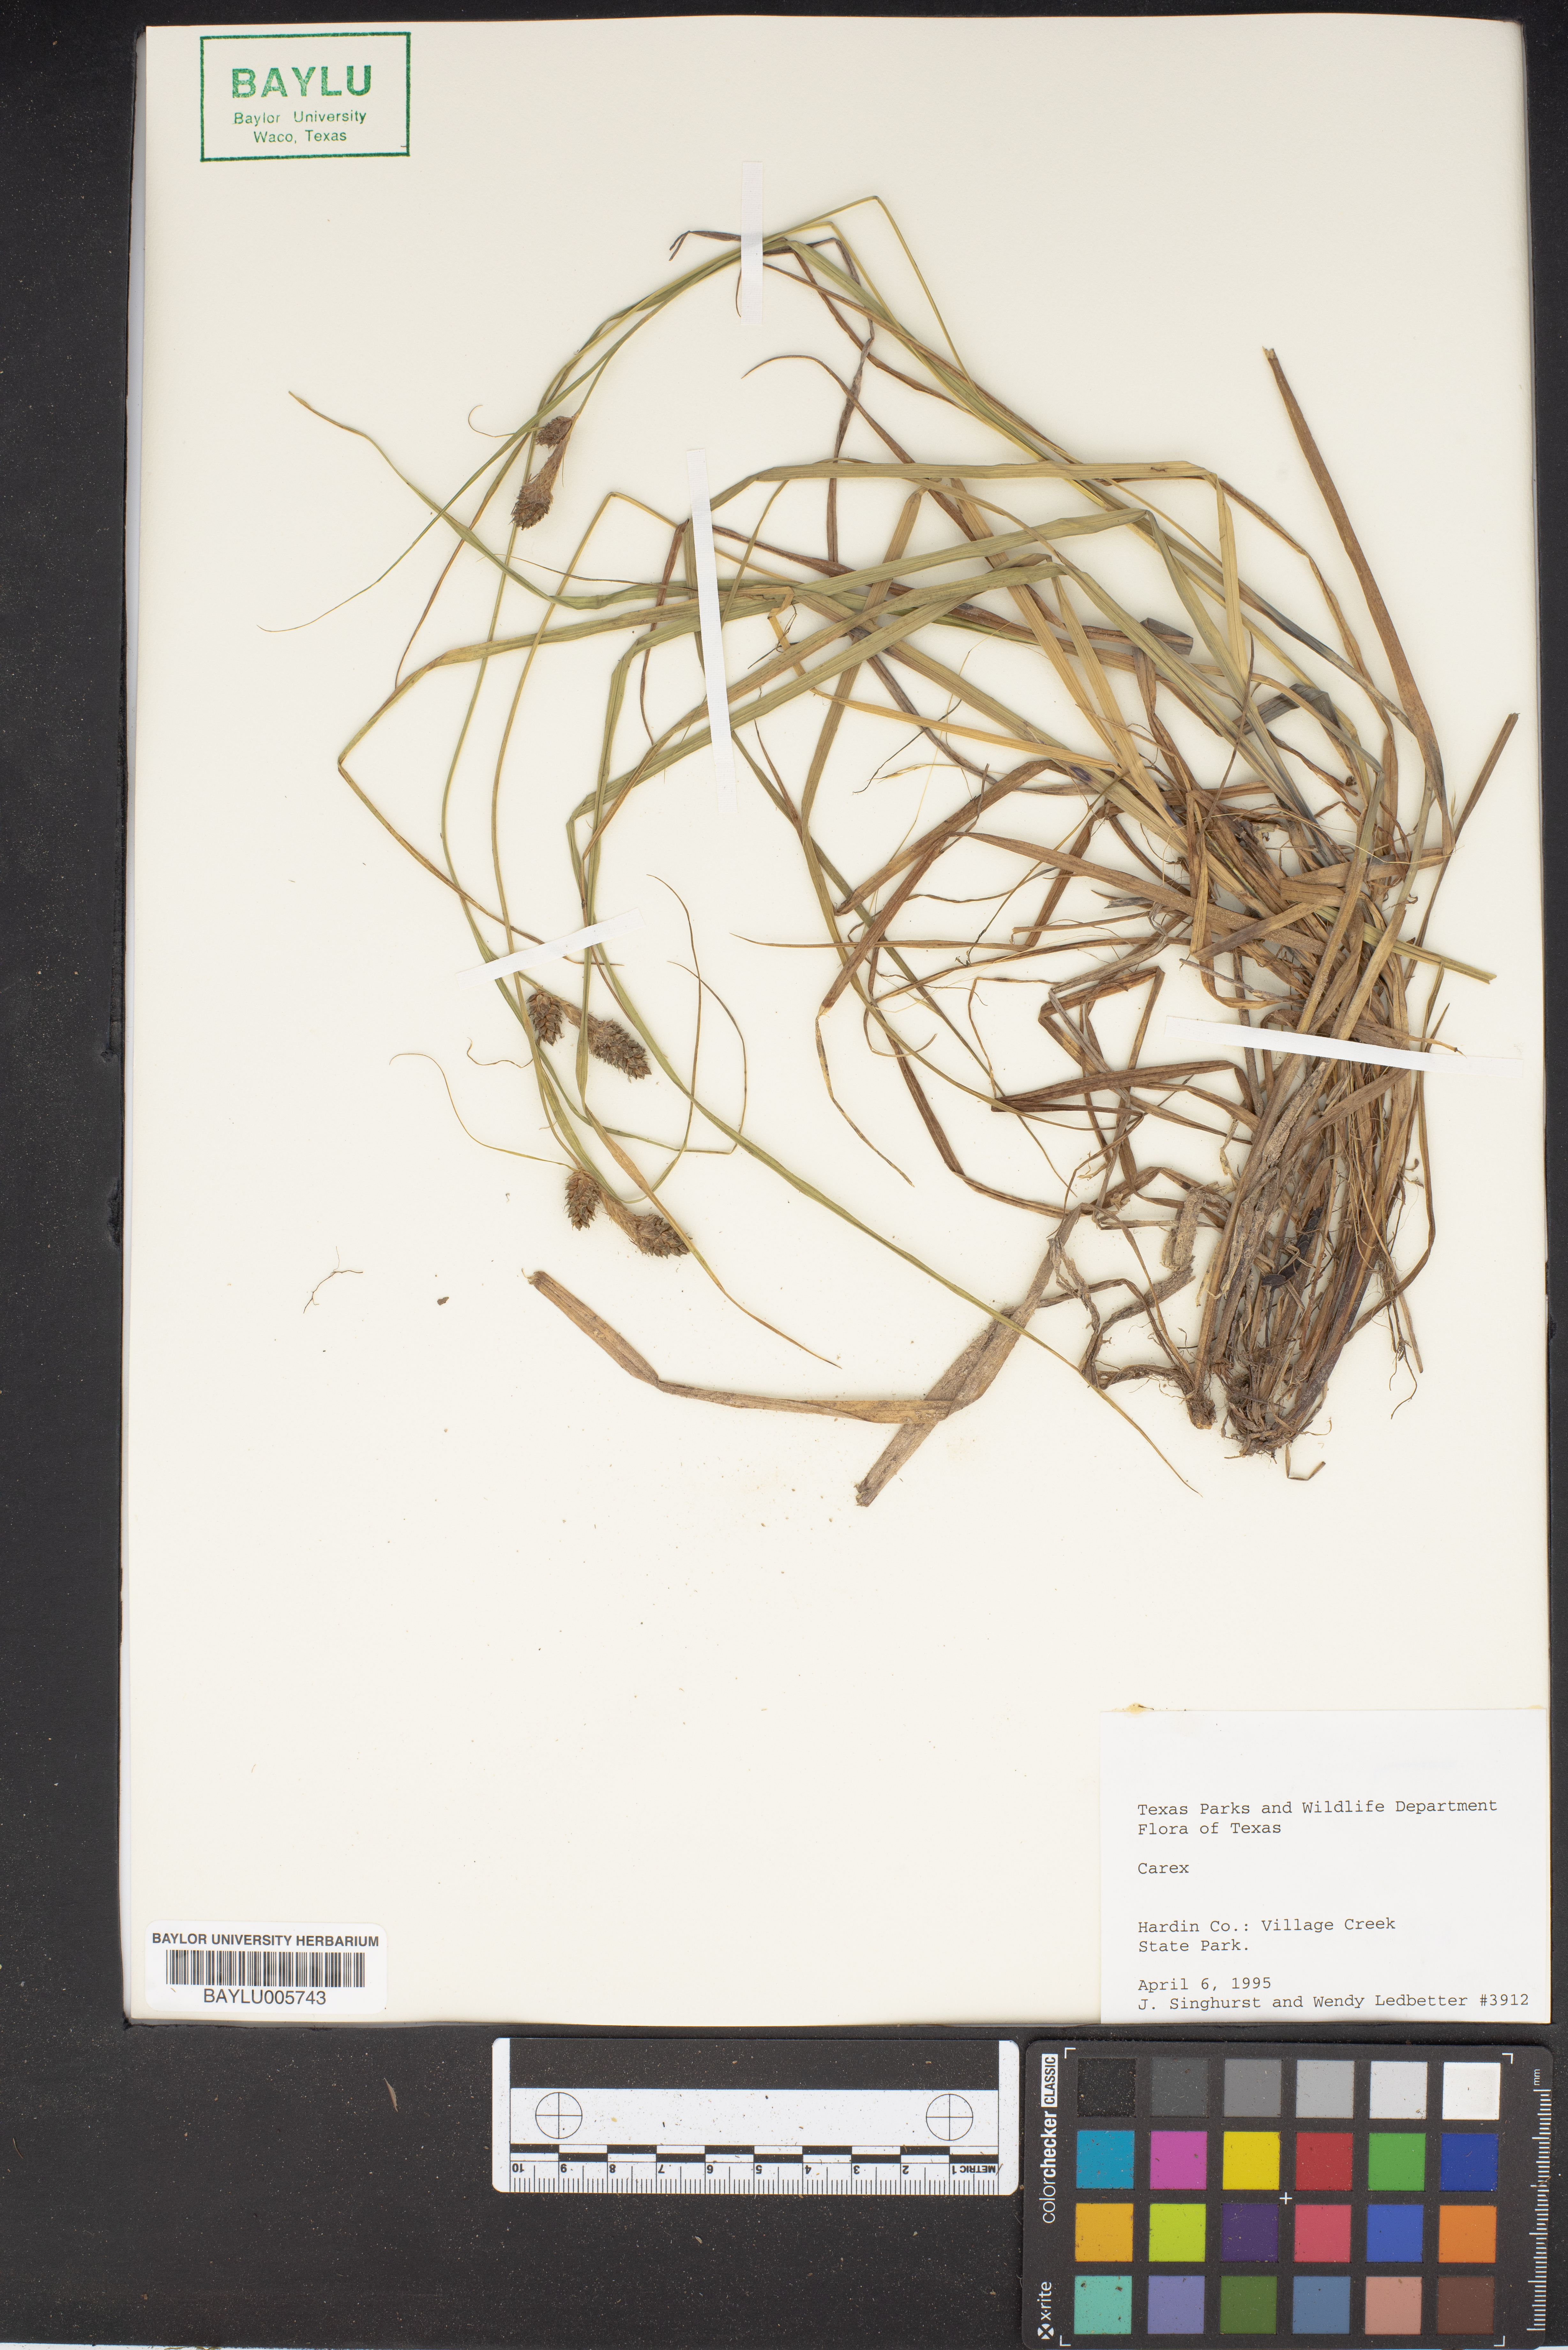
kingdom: Plantae
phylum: Tracheophyta
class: Liliopsida
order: Poales
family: Cyperaceae
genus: Carex
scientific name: Carex
